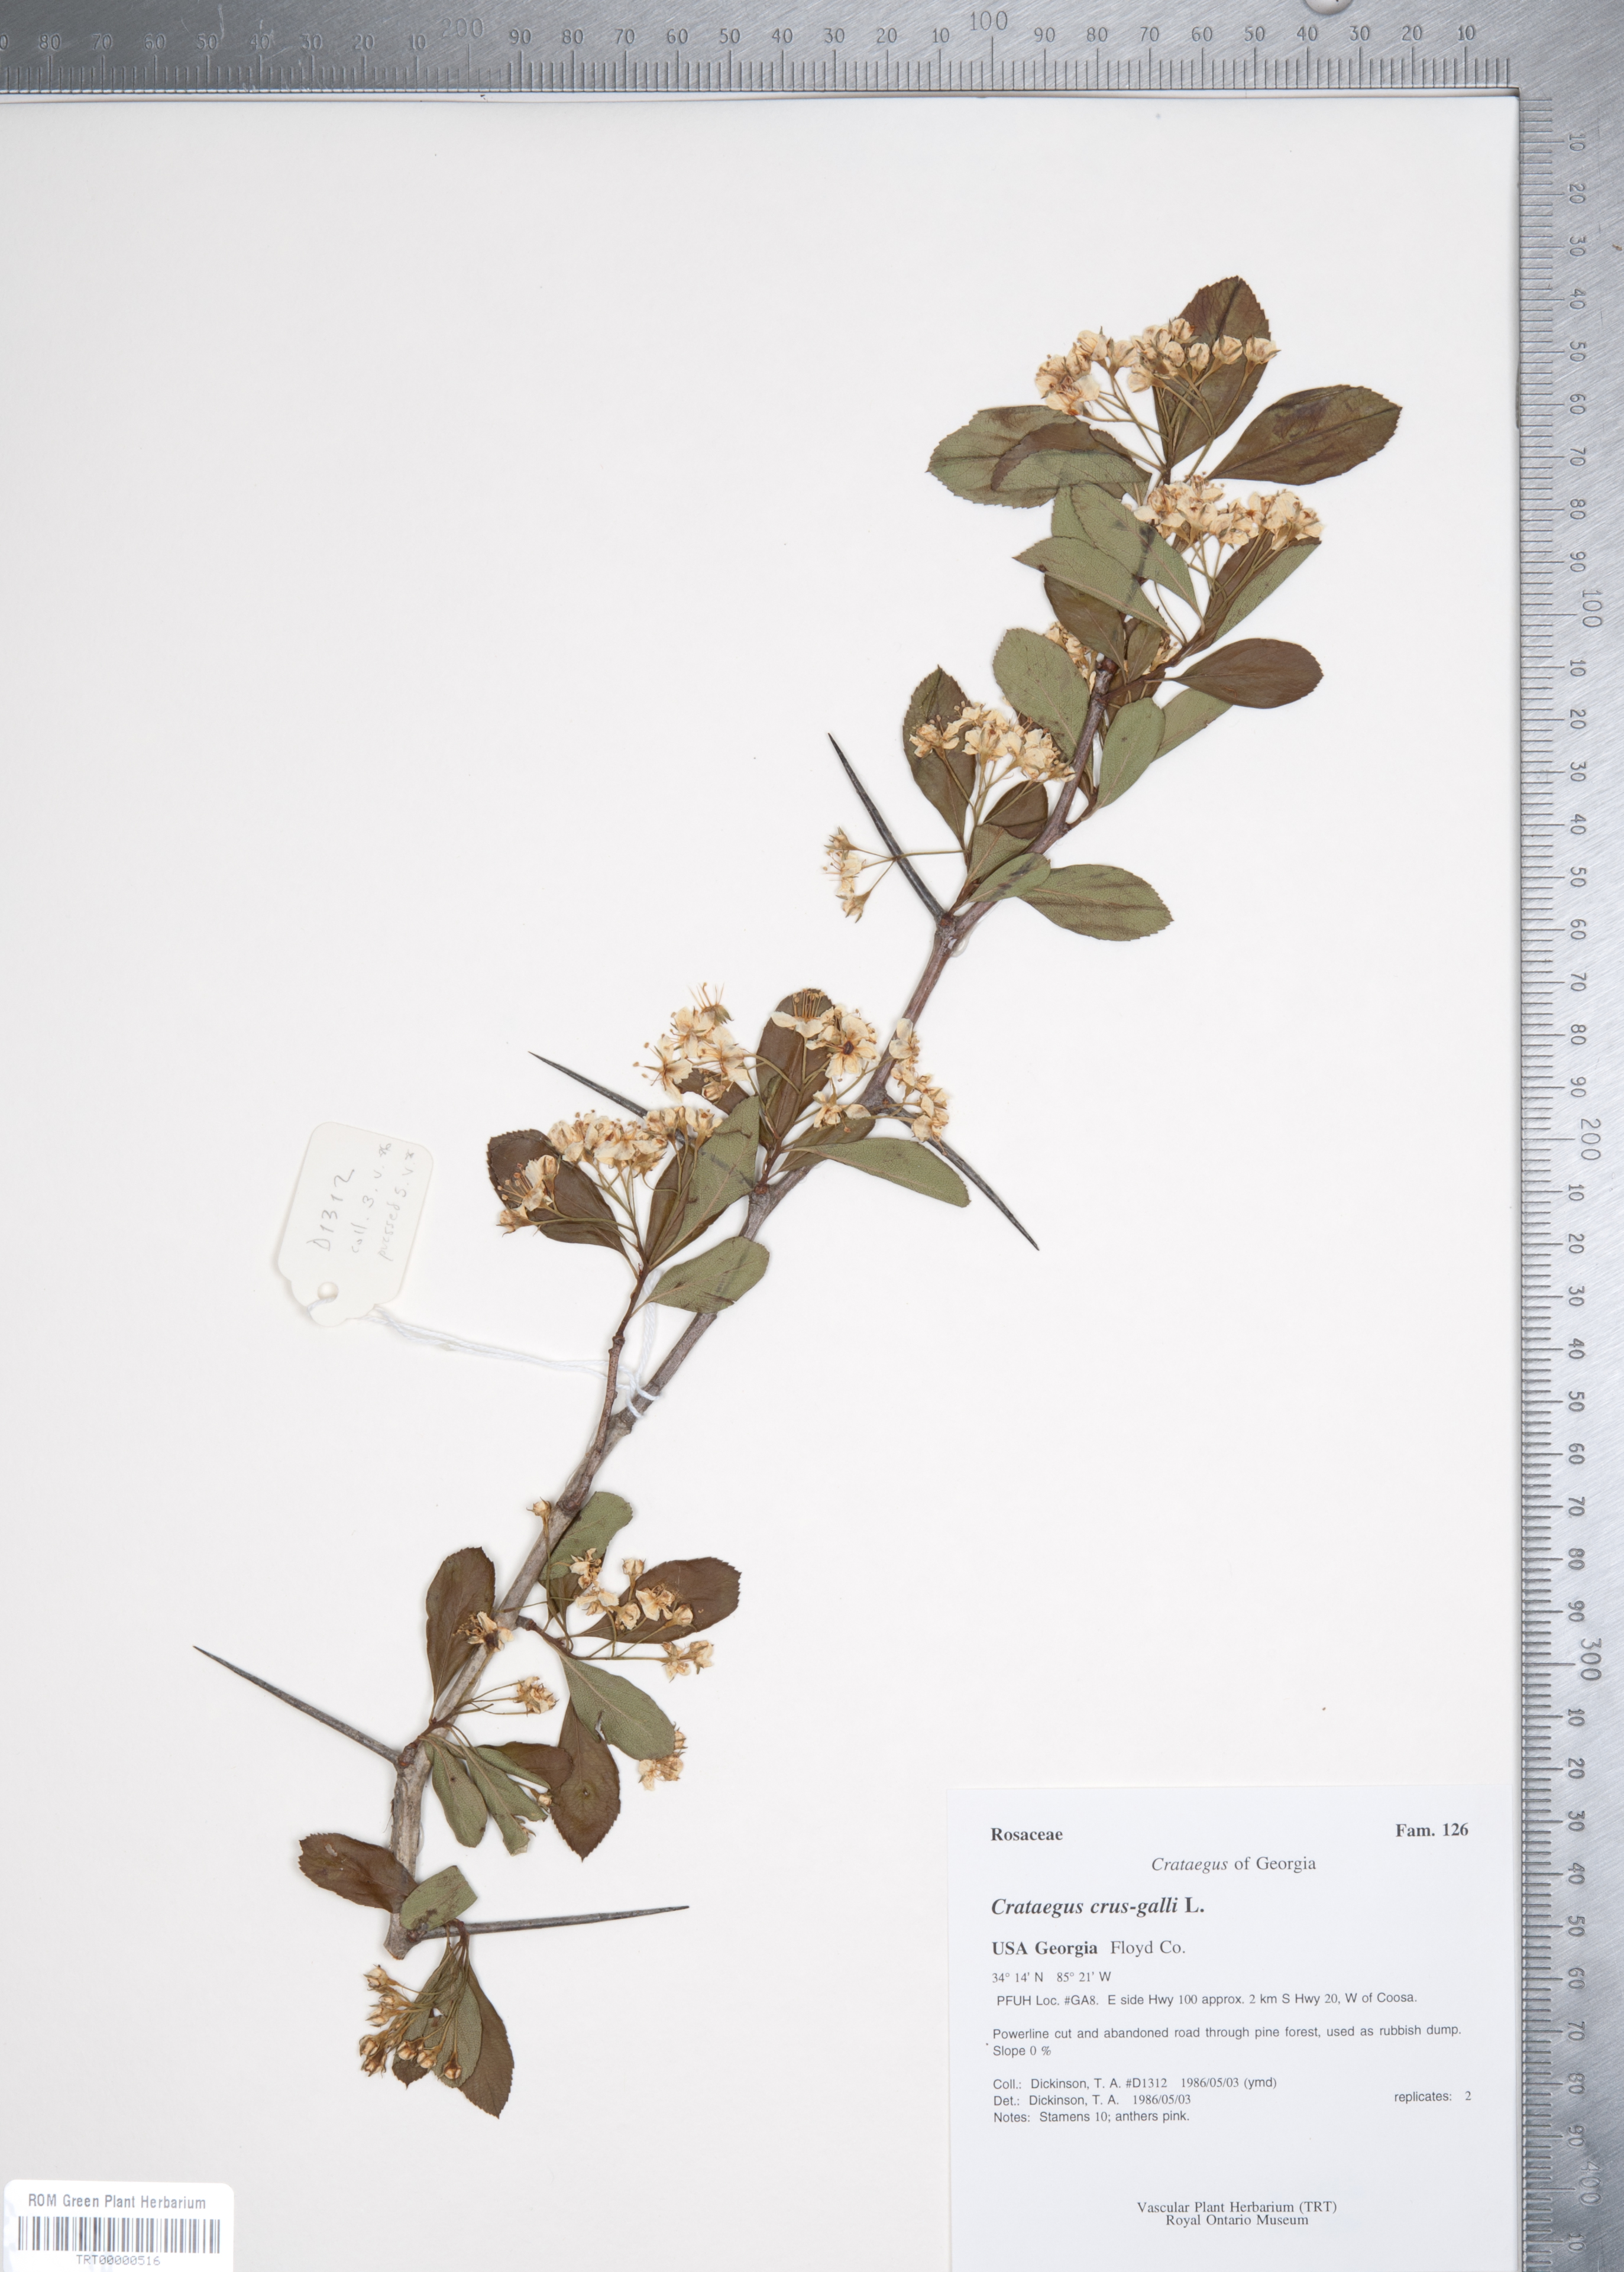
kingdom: Plantae
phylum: Tracheophyta
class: Magnoliopsida
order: Rosales
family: Rosaceae
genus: Crataegus
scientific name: Crataegus crus-galli
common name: Cockspurthorn
